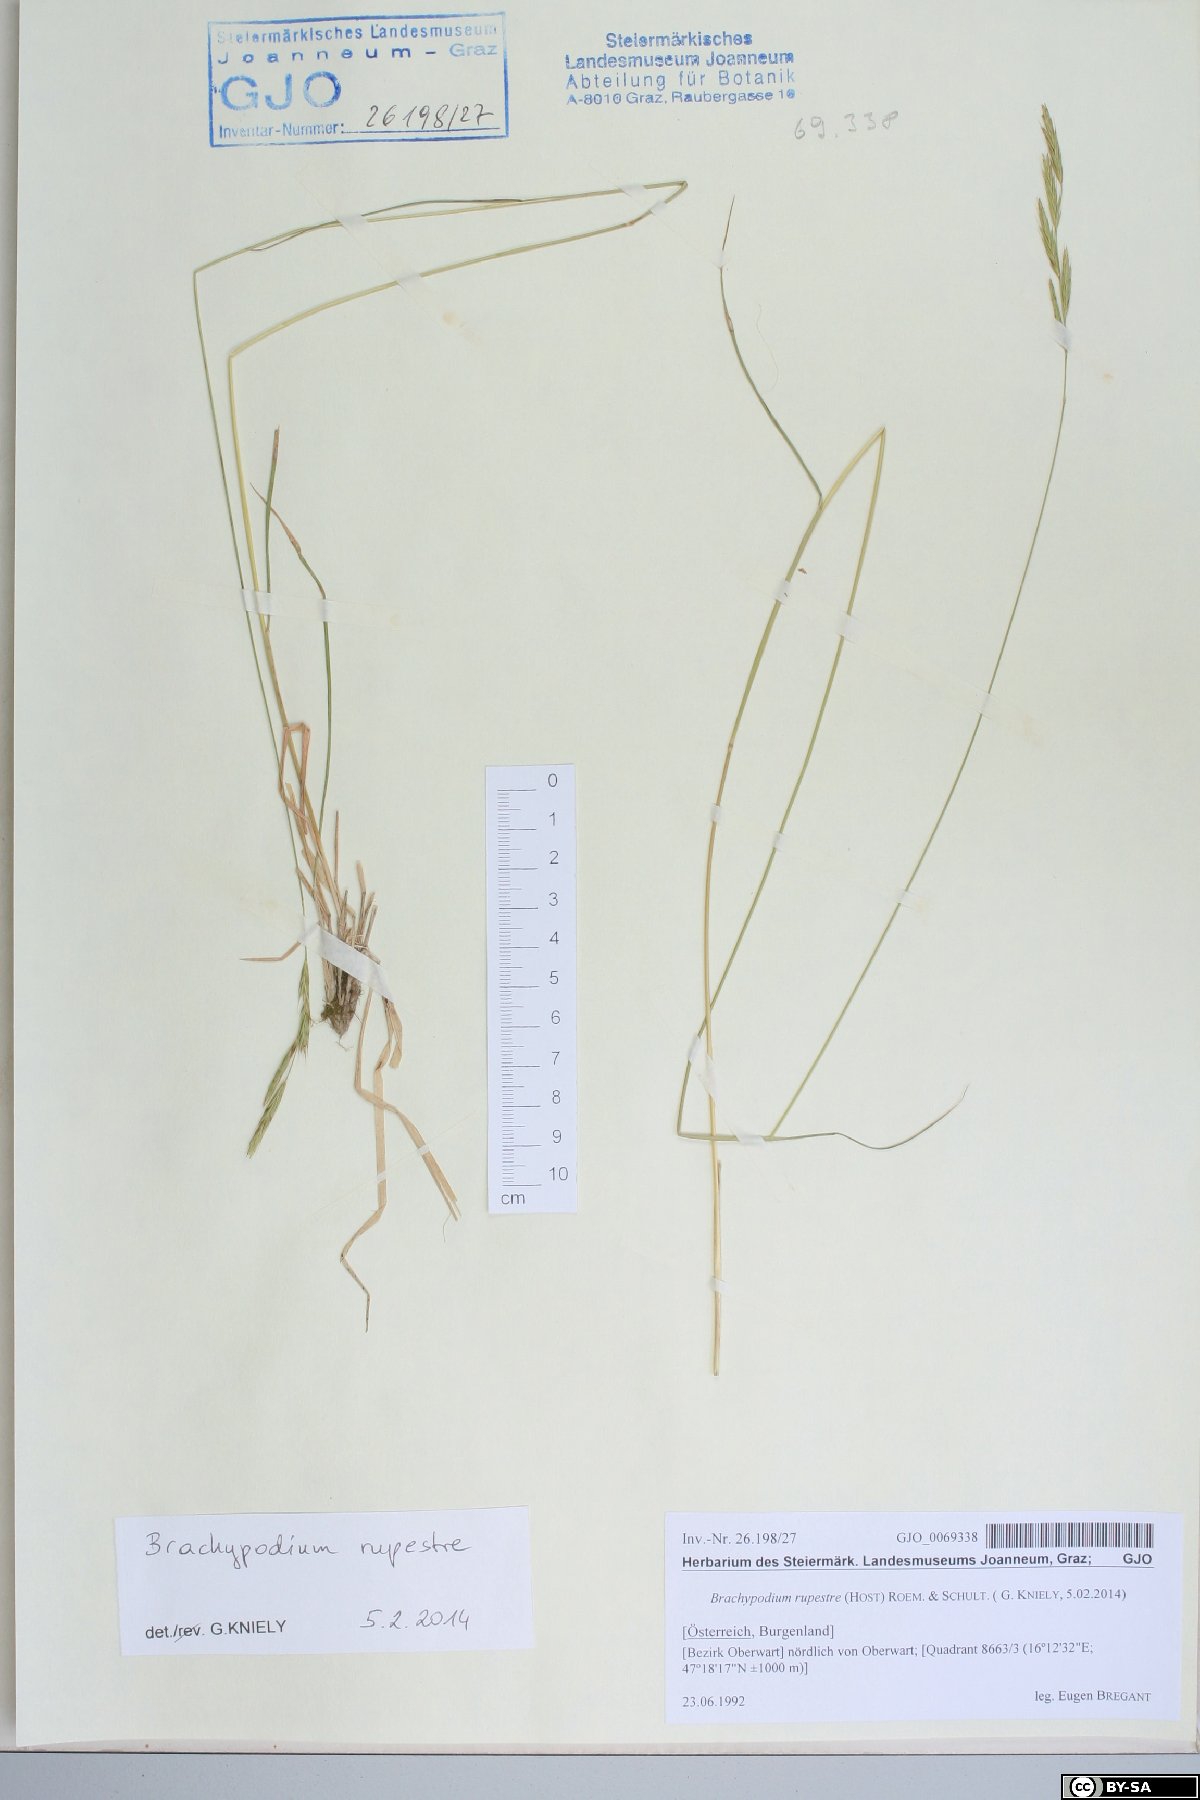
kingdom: Plantae
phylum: Tracheophyta
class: Liliopsida
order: Poales
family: Poaceae
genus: Brachypodium
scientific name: Brachypodium pinnatum
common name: Tor grass
